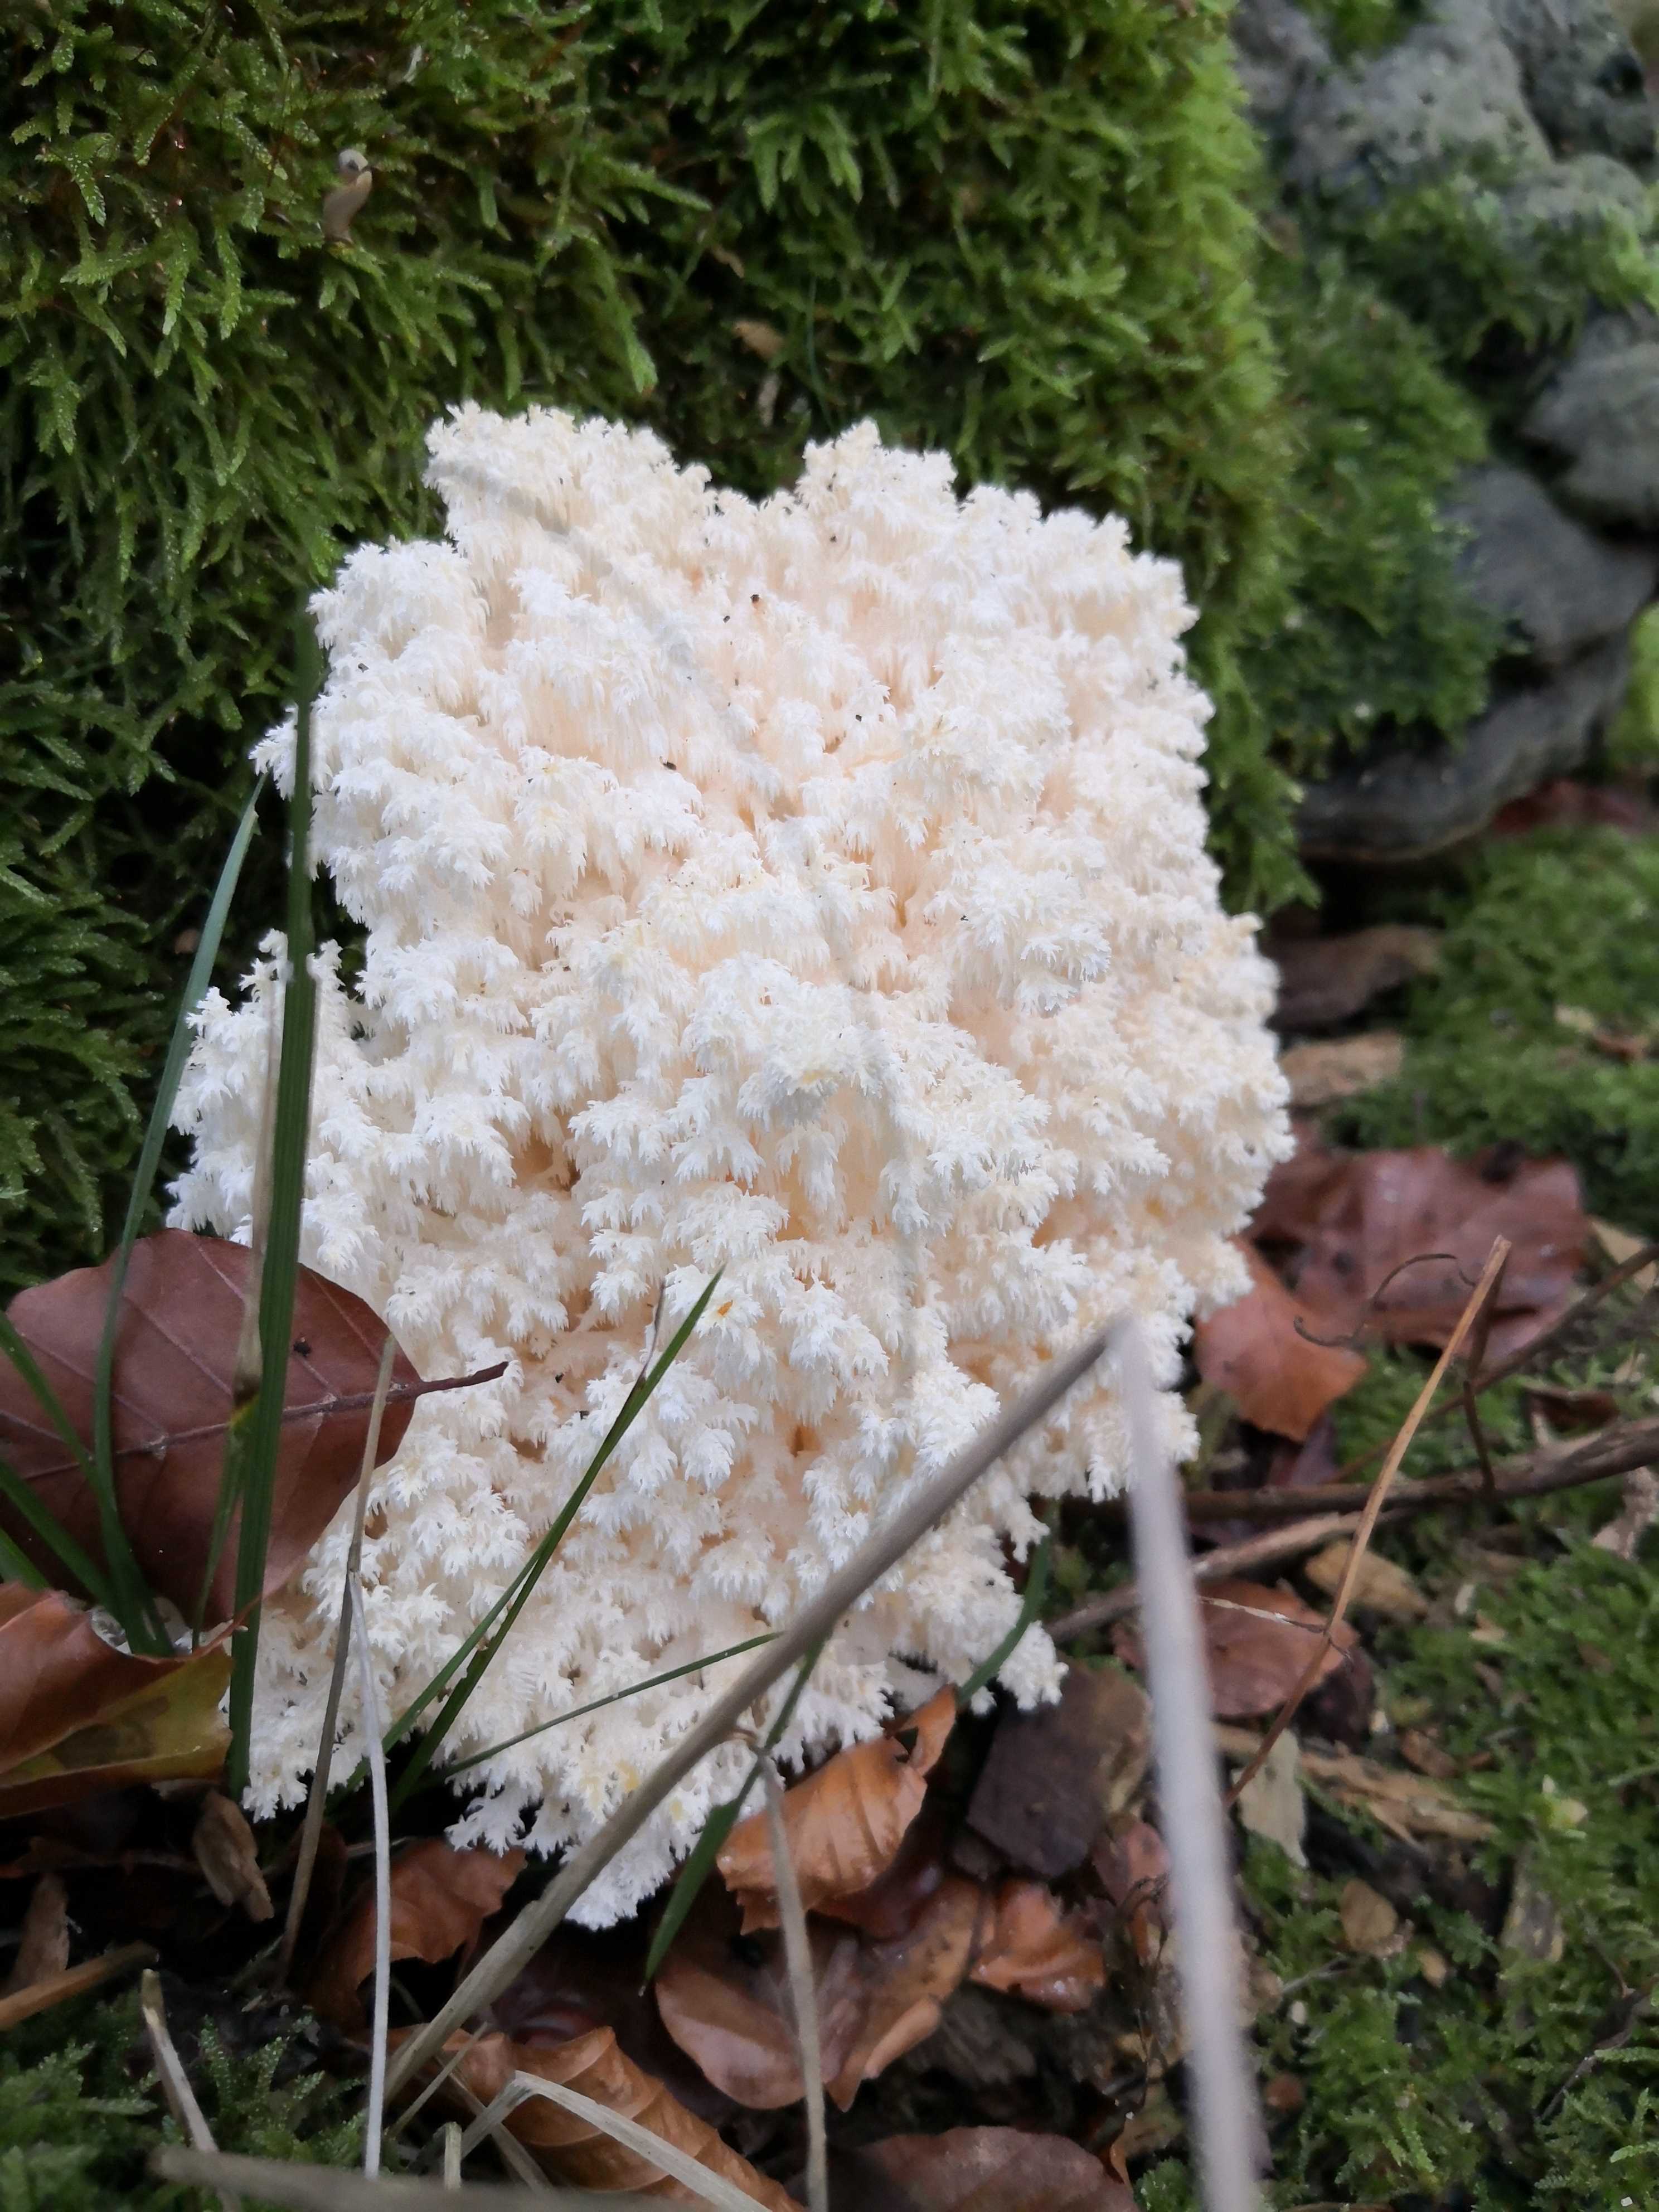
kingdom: Fungi
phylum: Basidiomycota
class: Agaricomycetes
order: Russulales
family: Hericiaceae
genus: Hericium
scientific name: Hericium coralloides
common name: koralpigsvamp
